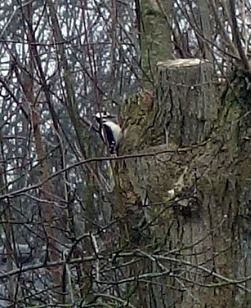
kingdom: Animalia
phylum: Chordata
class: Aves
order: Piciformes
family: Picidae
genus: Dendrocopos
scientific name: Dendrocopos major
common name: Stor flagspætte
